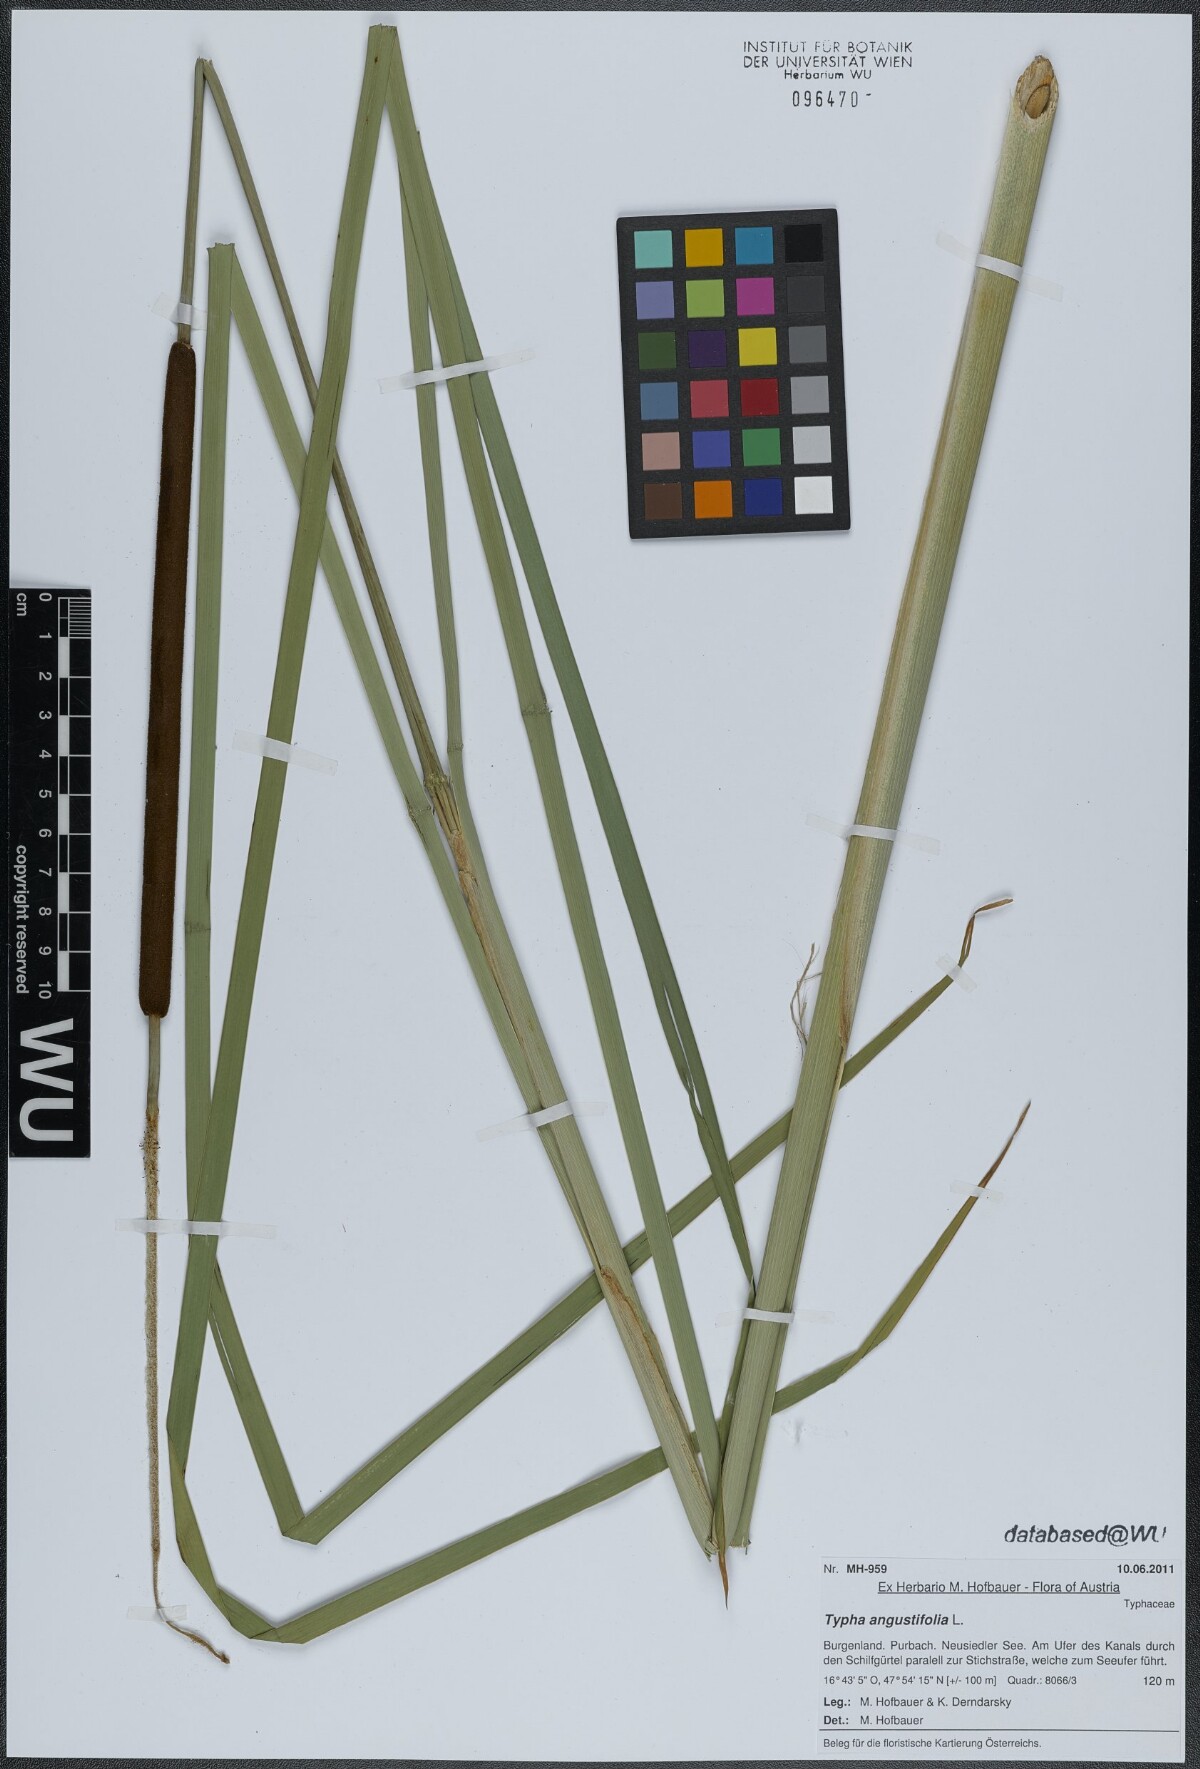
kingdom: Plantae
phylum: Tracheophyta
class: Liliopsida
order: Poales
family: Typhaceae
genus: Typha
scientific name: Typha angustifolia
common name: Lesser bulrush
